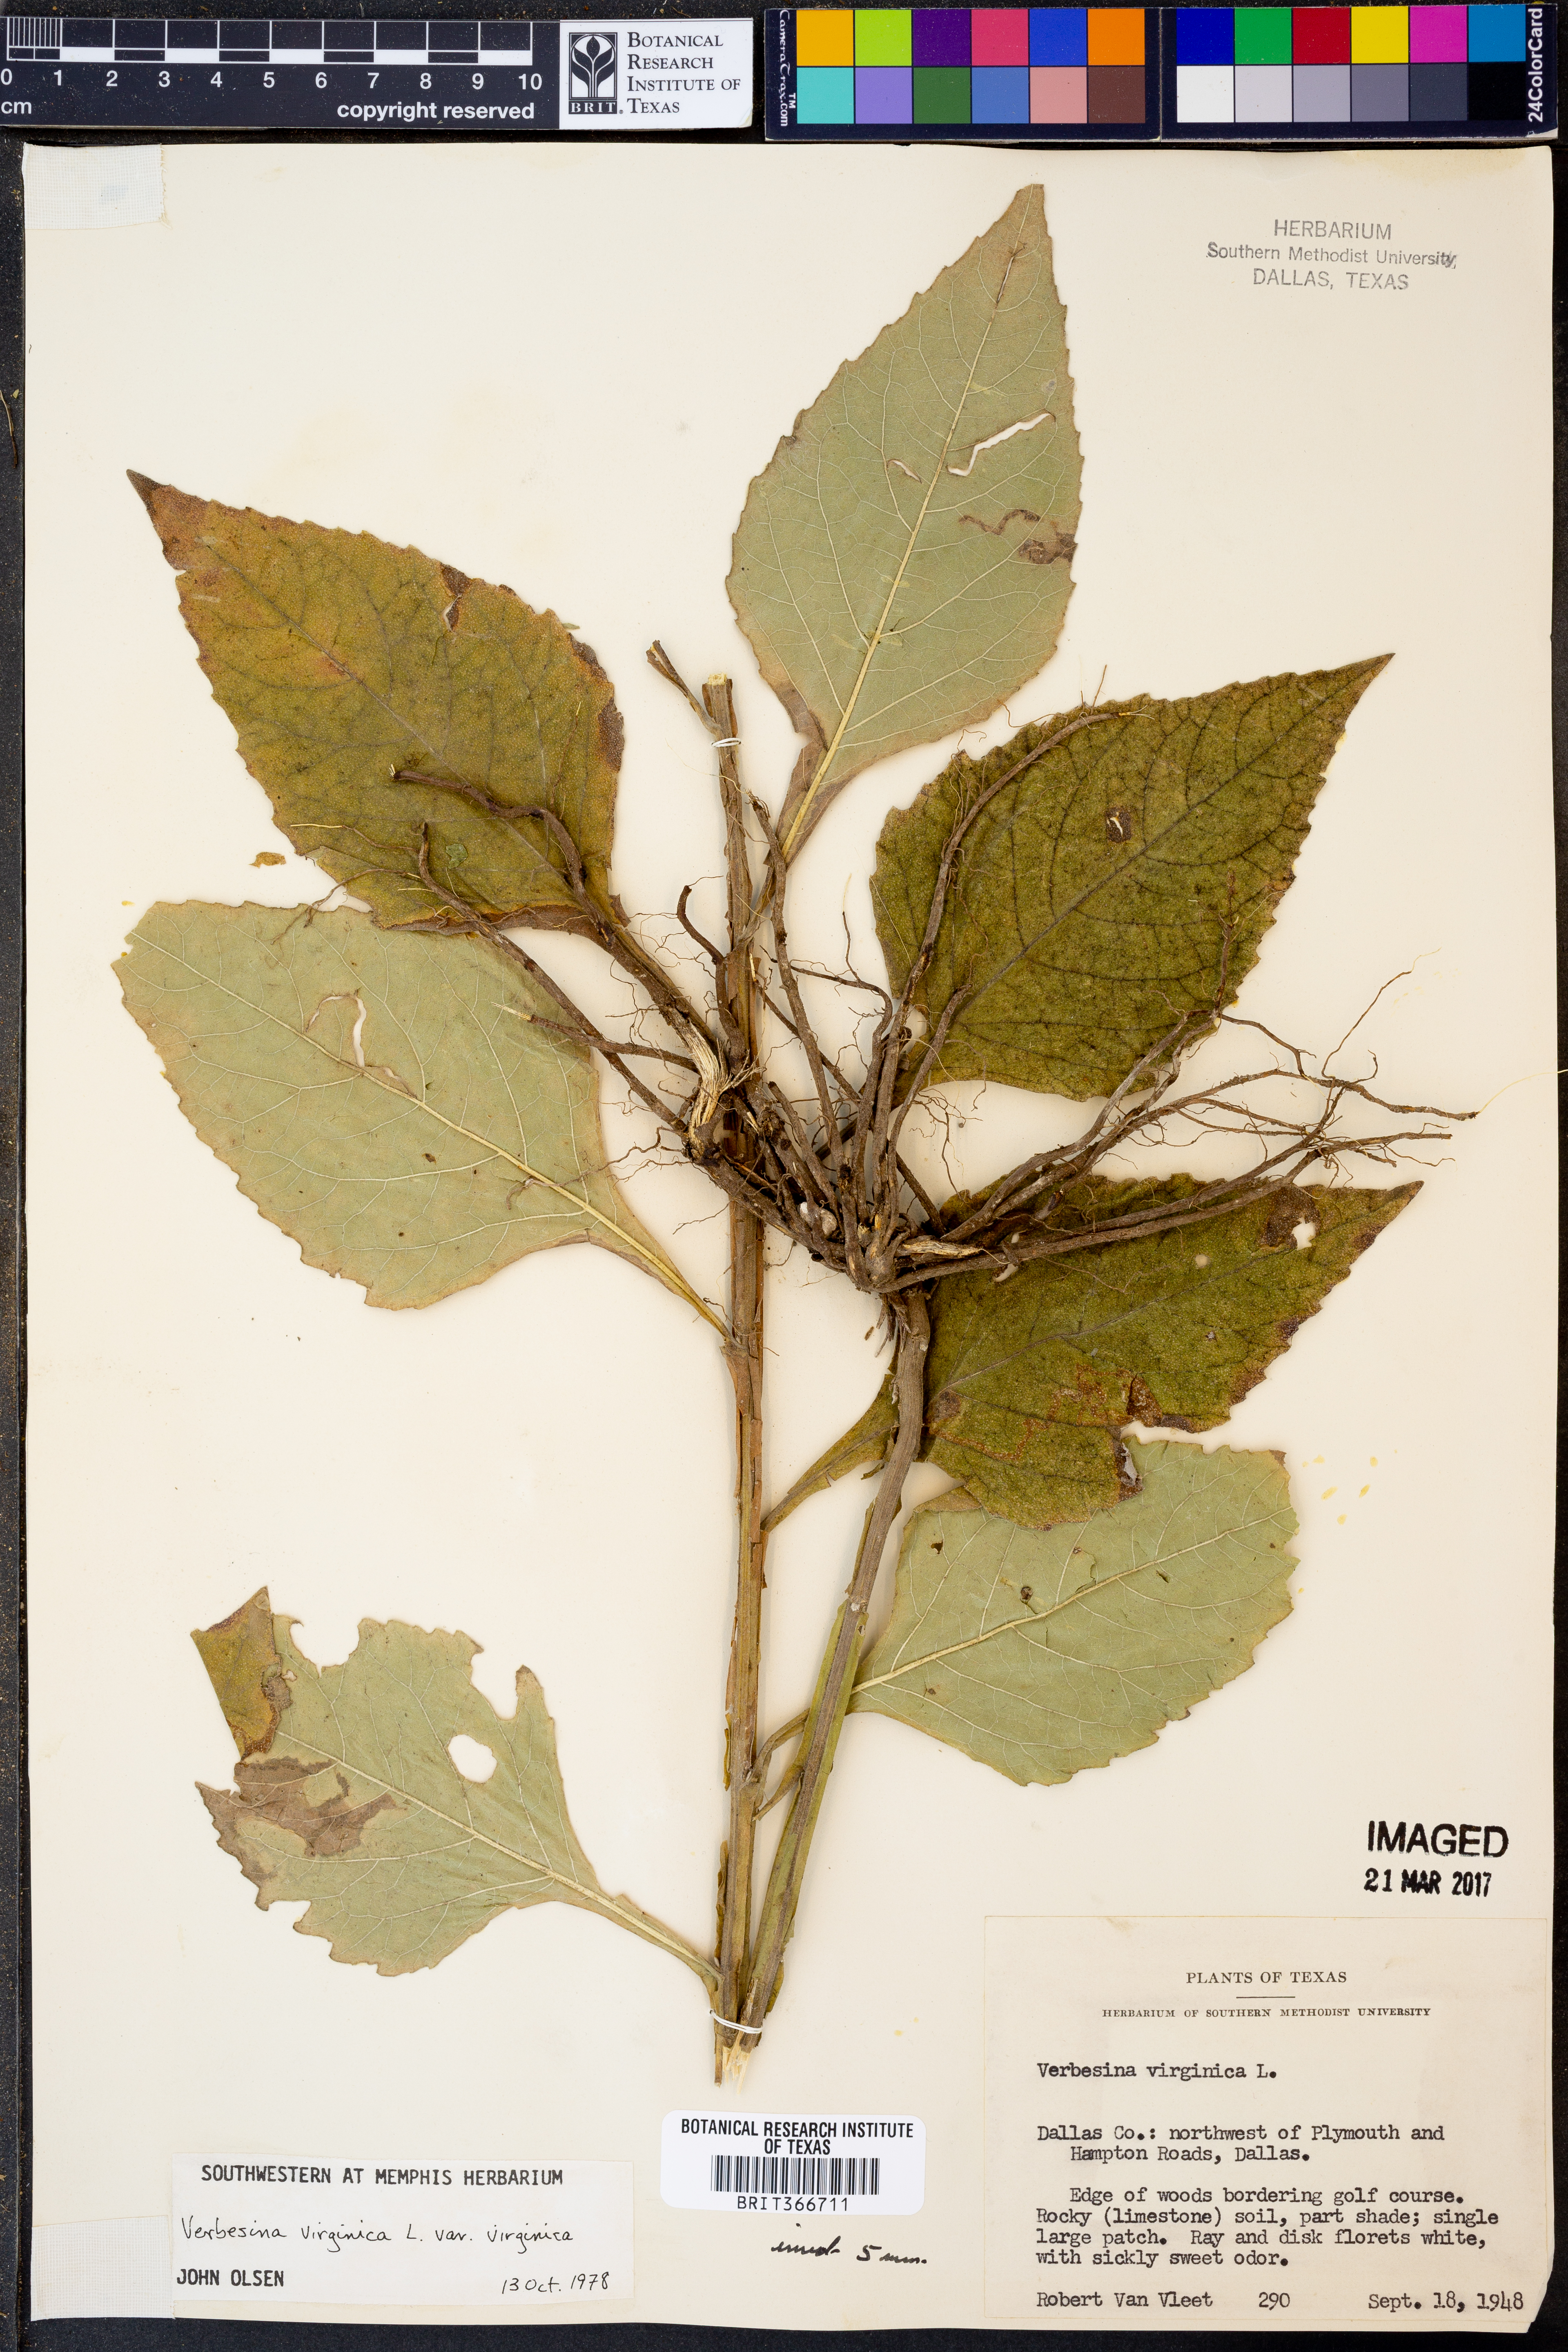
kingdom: Plantae
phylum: Tracheophyta
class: Magnoliopsida
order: Asterales
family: Asteraceae
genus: Verbesina
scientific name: Verbesina virginica
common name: Frostweed
